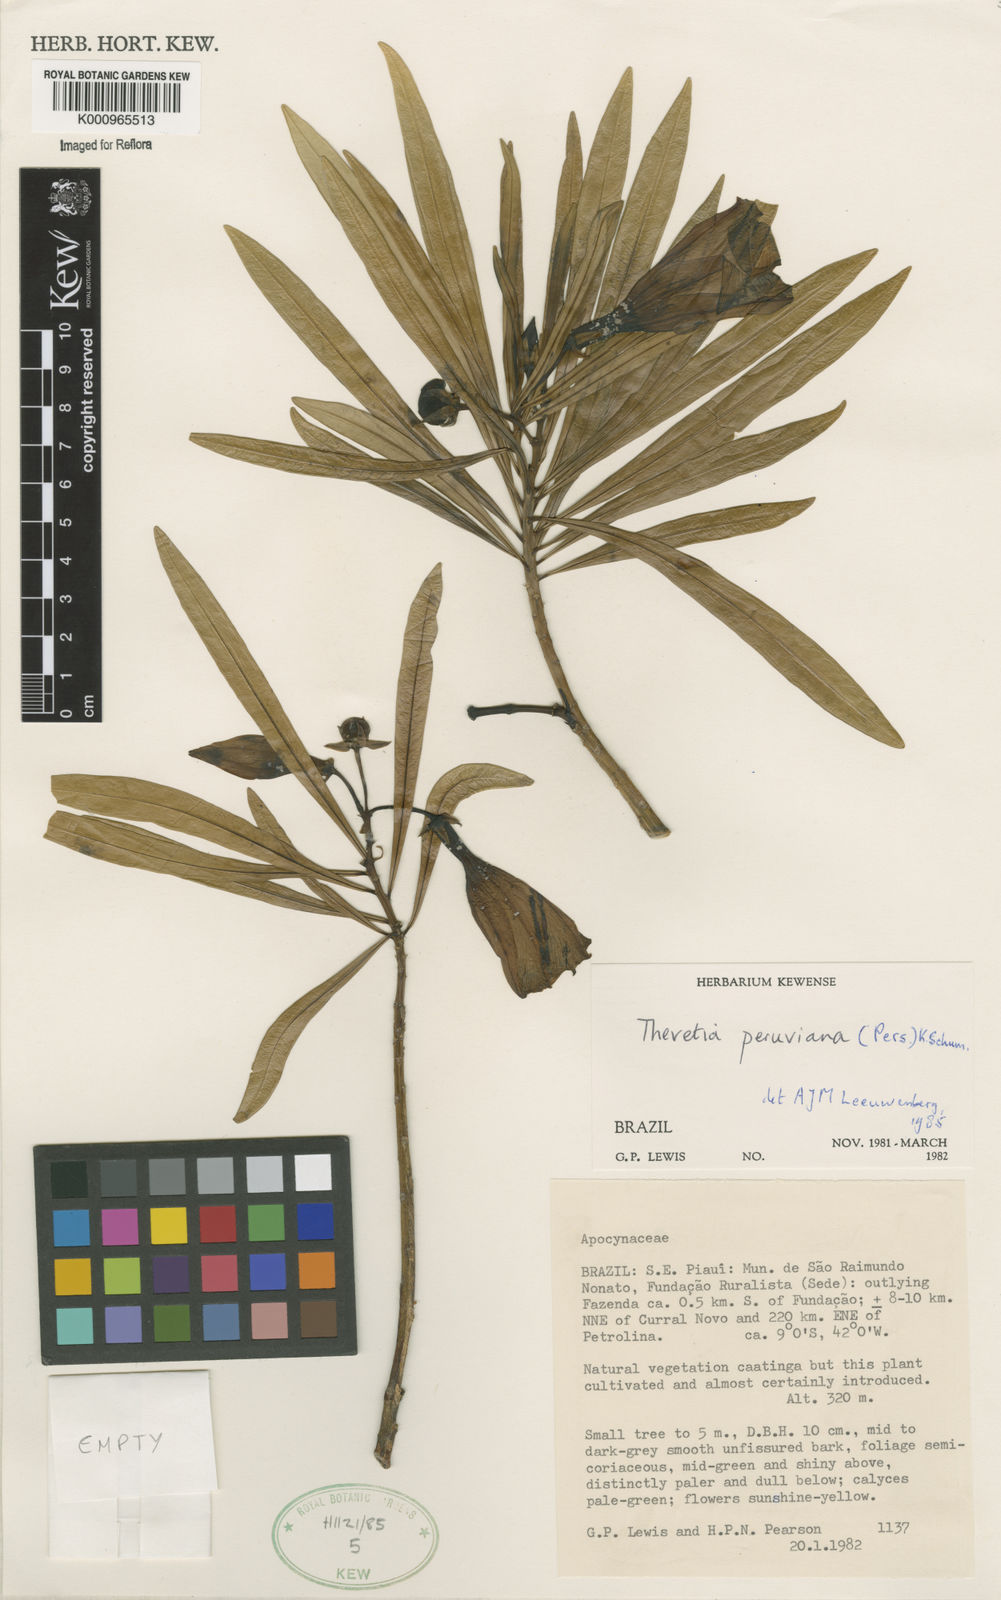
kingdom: Plantae
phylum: Tracheophyta
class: Magnoliopsida
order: Gentianales
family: Apocynaceae
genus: Cascabela
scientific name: Cascabela thevetia
